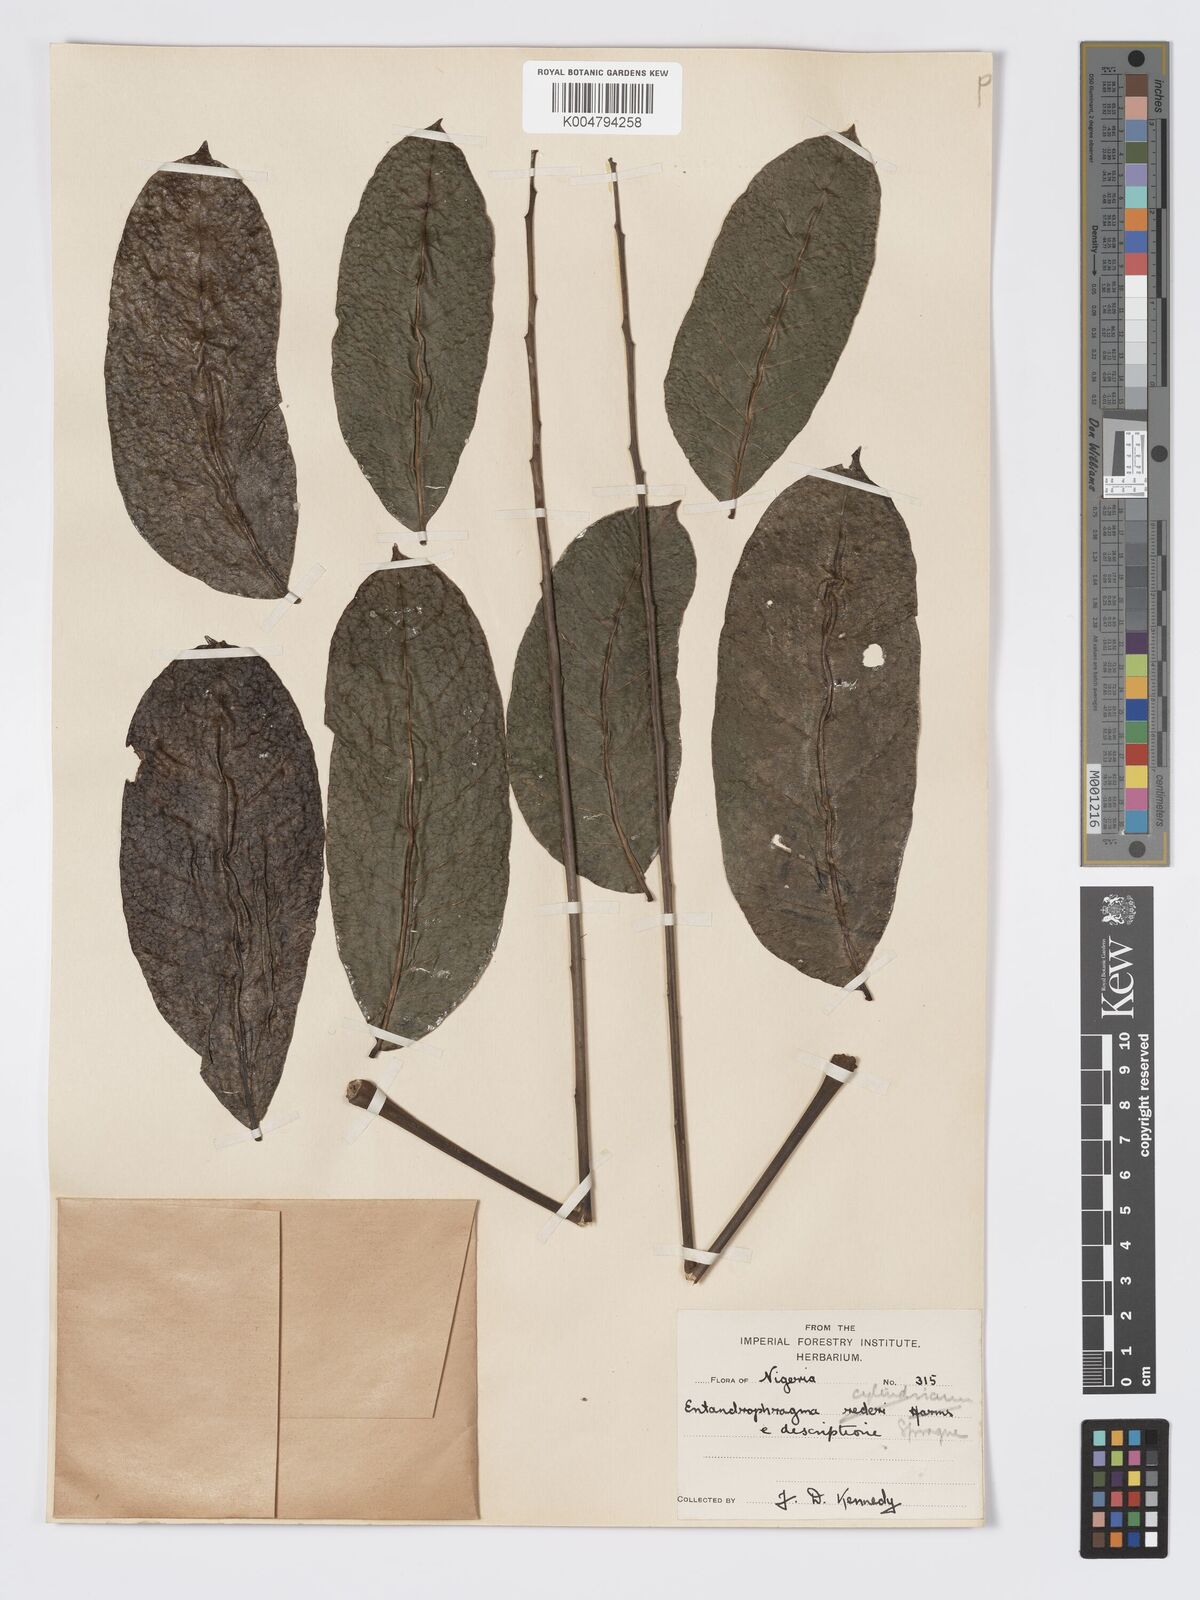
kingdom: Plantae
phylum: Tracheophyta
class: Magnoliopsida
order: Sapindales
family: Meliaceae
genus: Entandrophragma
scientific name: Entandrophragma cylindricum
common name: Sapele
